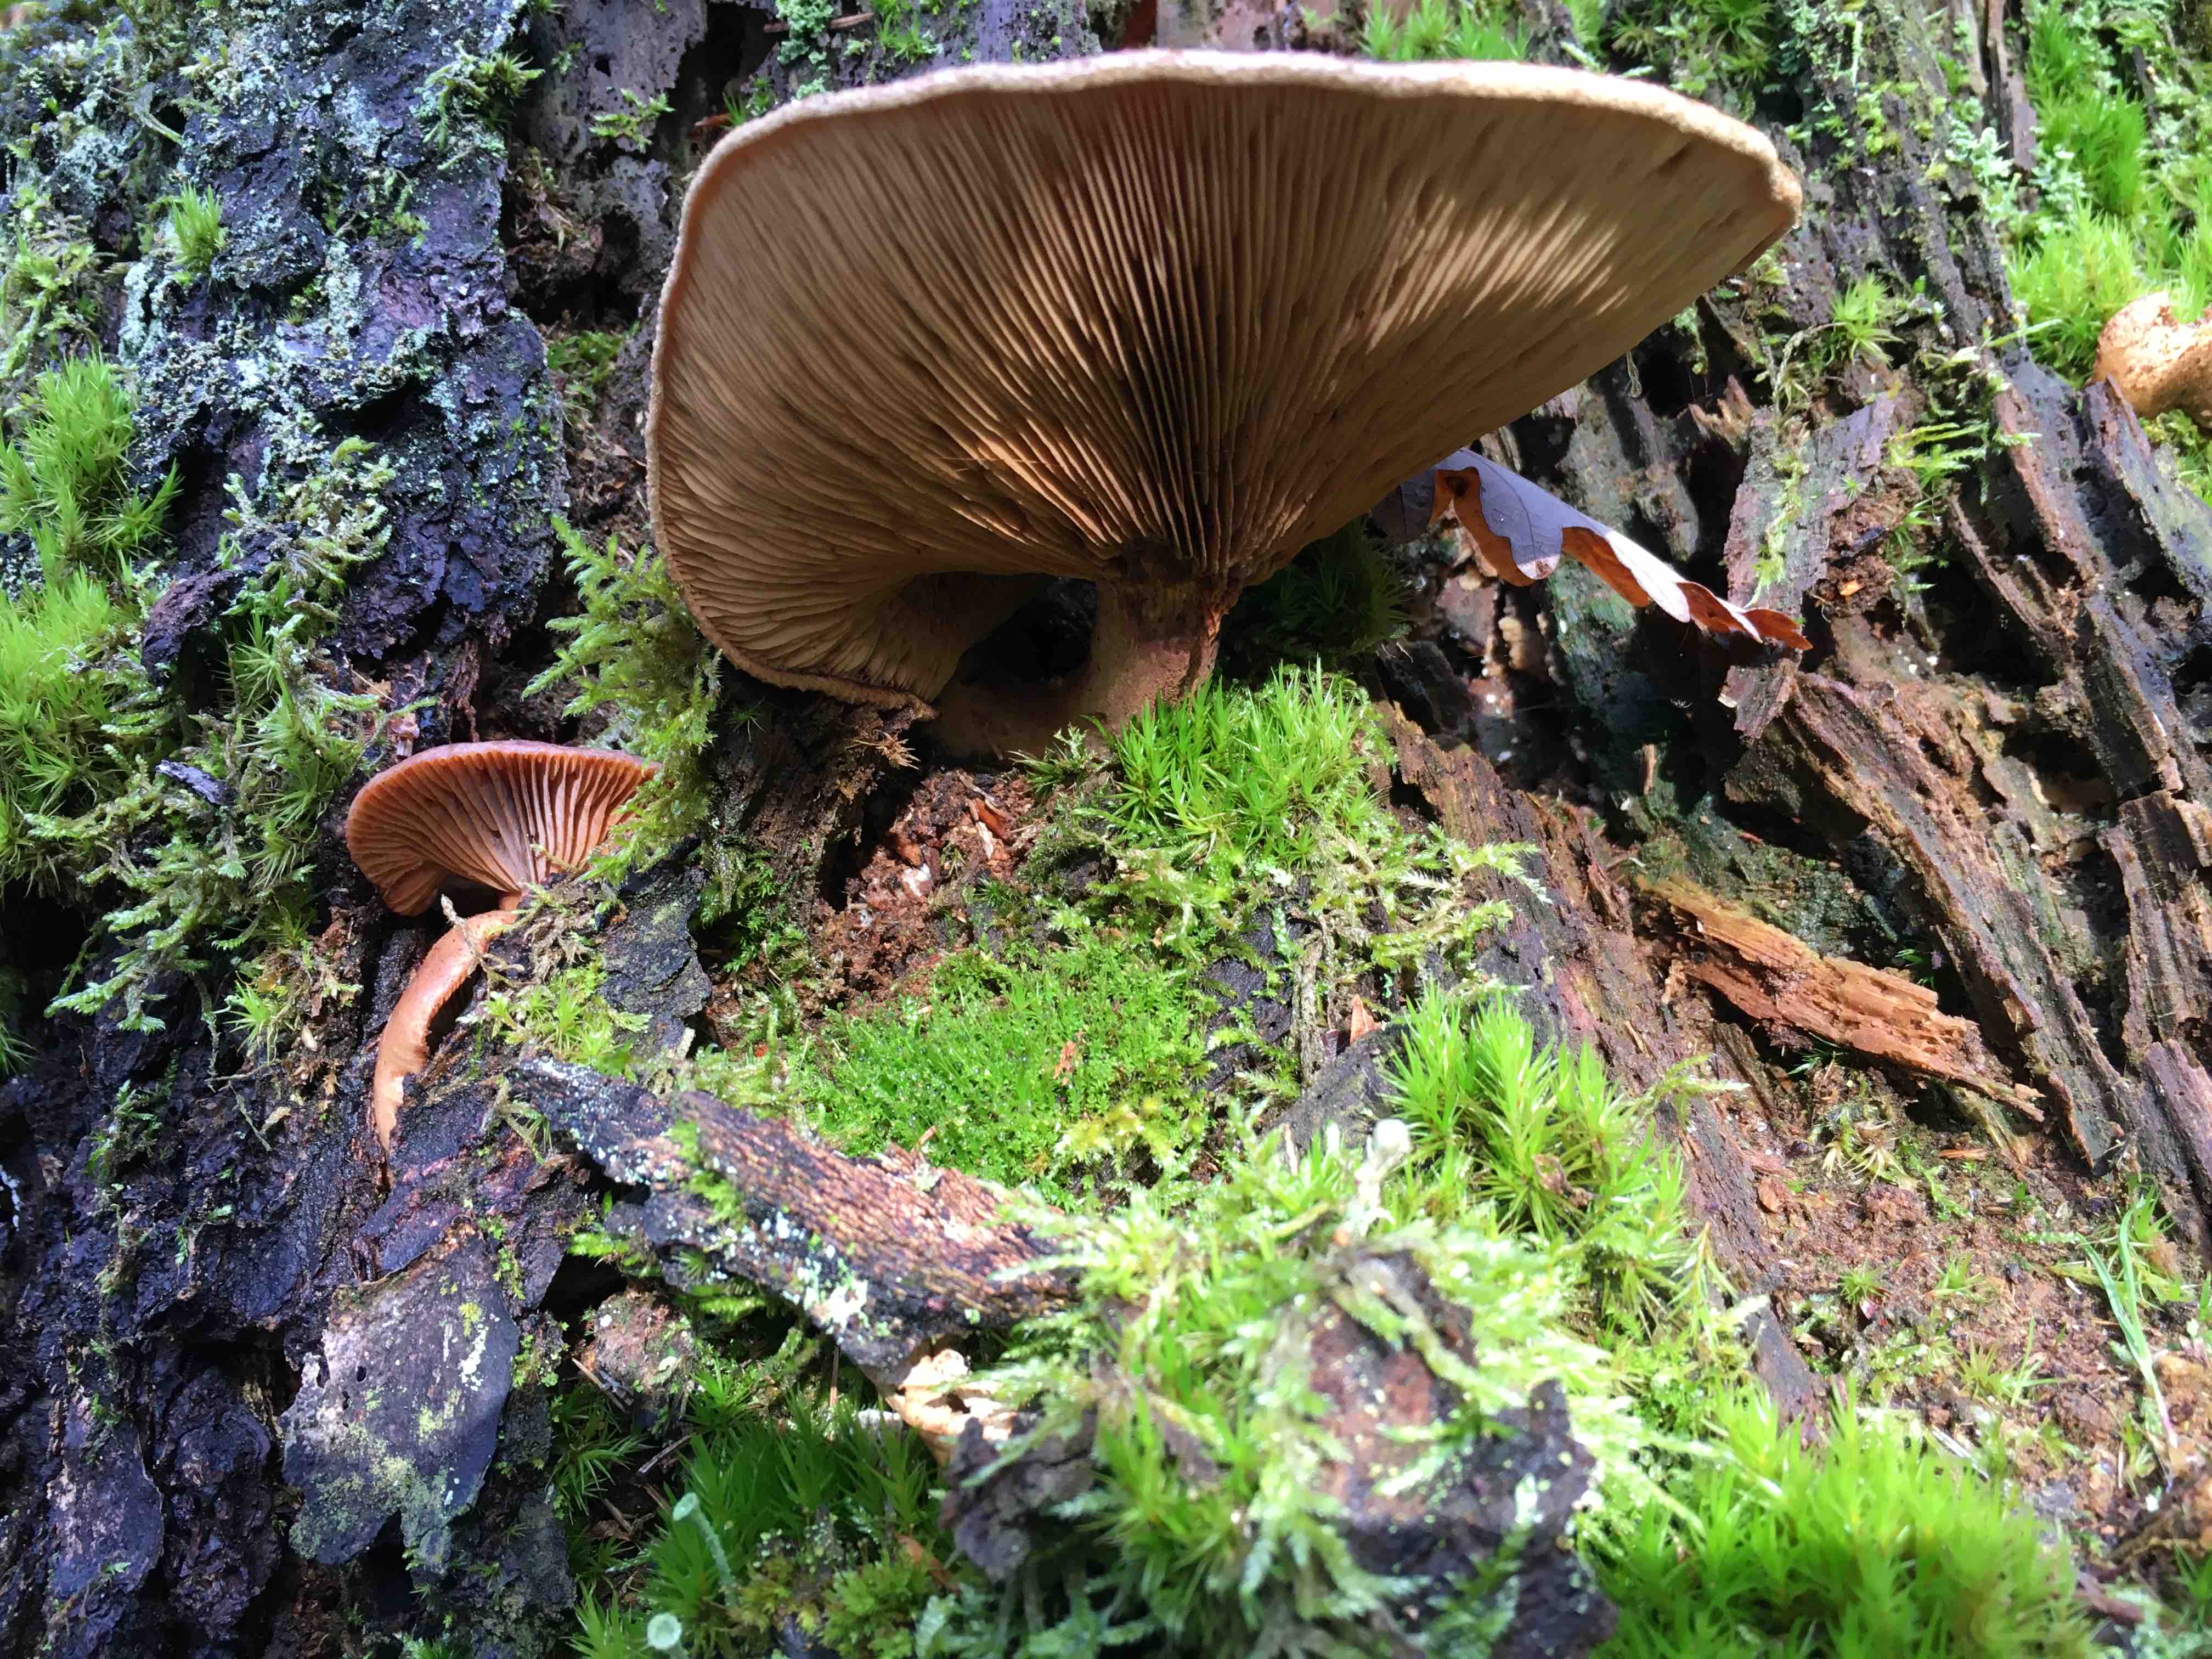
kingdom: Fungi
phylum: Basidiomycota
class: Agaricomycetes
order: Boletales
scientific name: Boletales
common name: rørhatordenen
